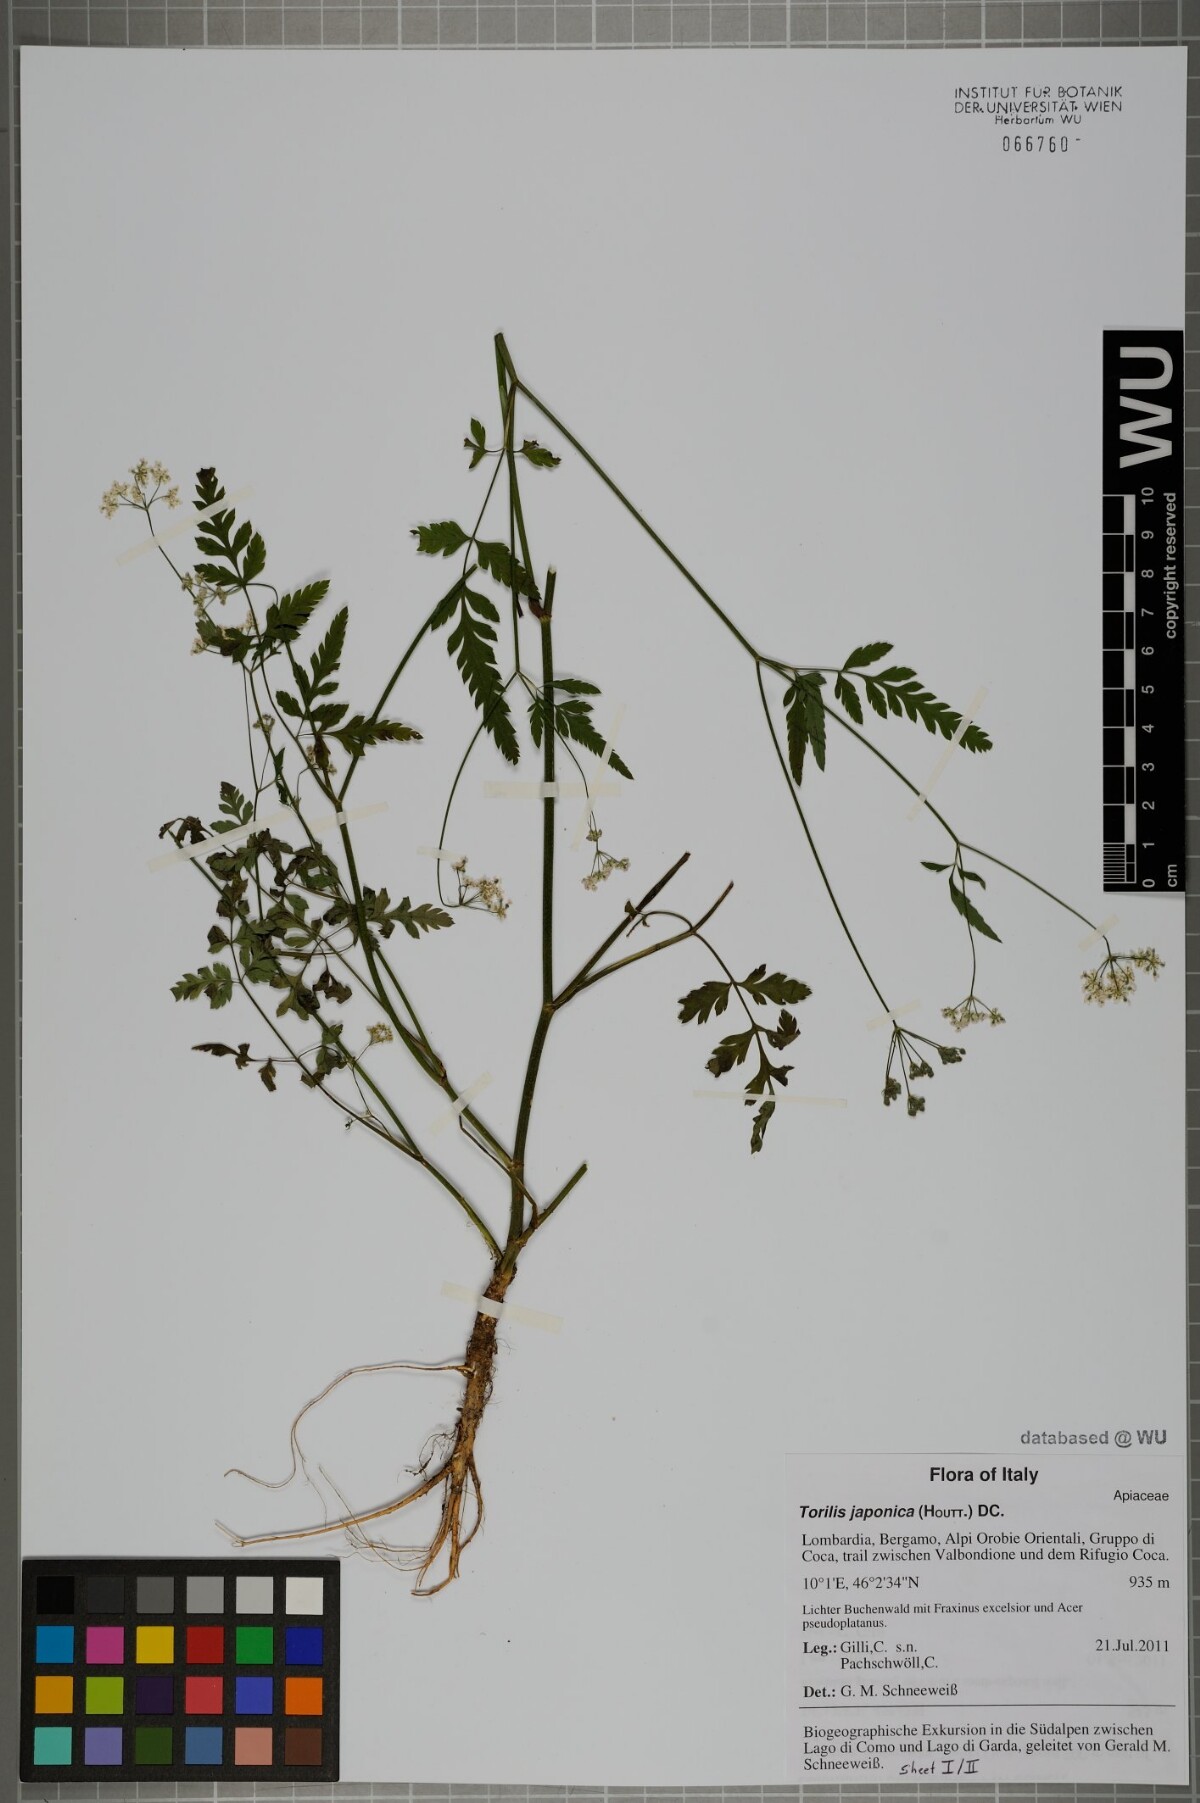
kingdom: Plantae
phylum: Tracheophyta
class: Magnoliopsida
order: Apiales
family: Apiaceae
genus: Torilis
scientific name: Torilis japonica
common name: Upright hedge-parsley
